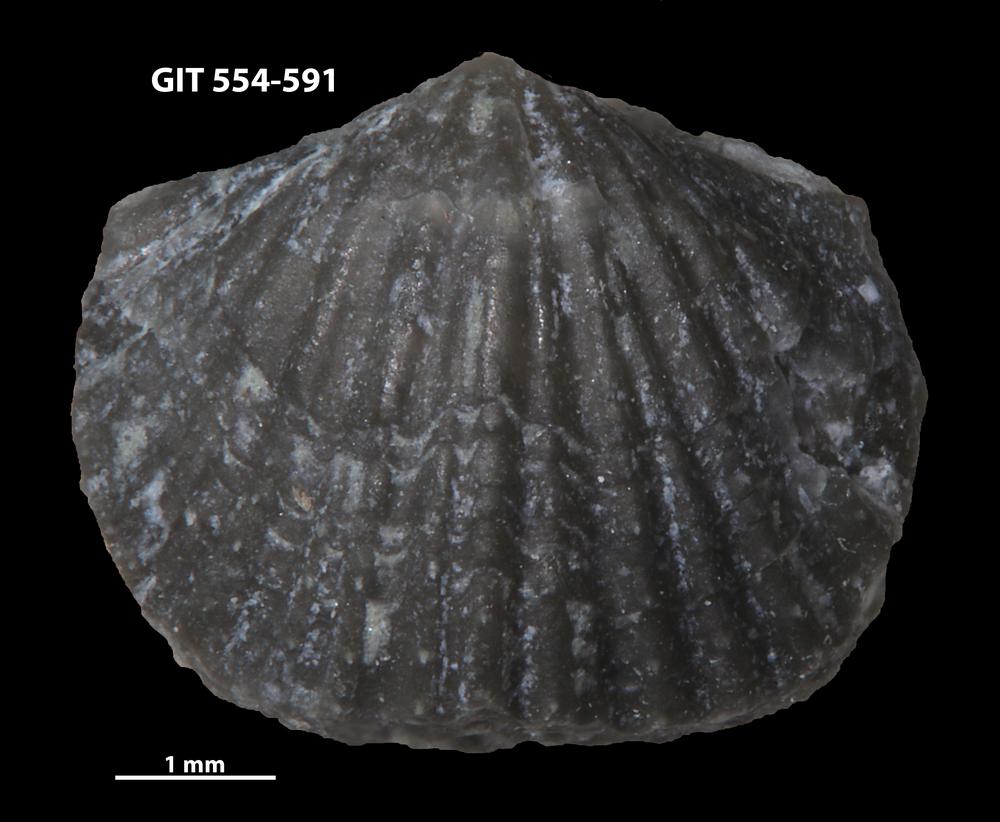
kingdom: Animalia
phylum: Brachiopoda
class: Rhynchonellata
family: Hesperorthidae
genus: Ptychopleurella
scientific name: Ptychopleurella transversa
